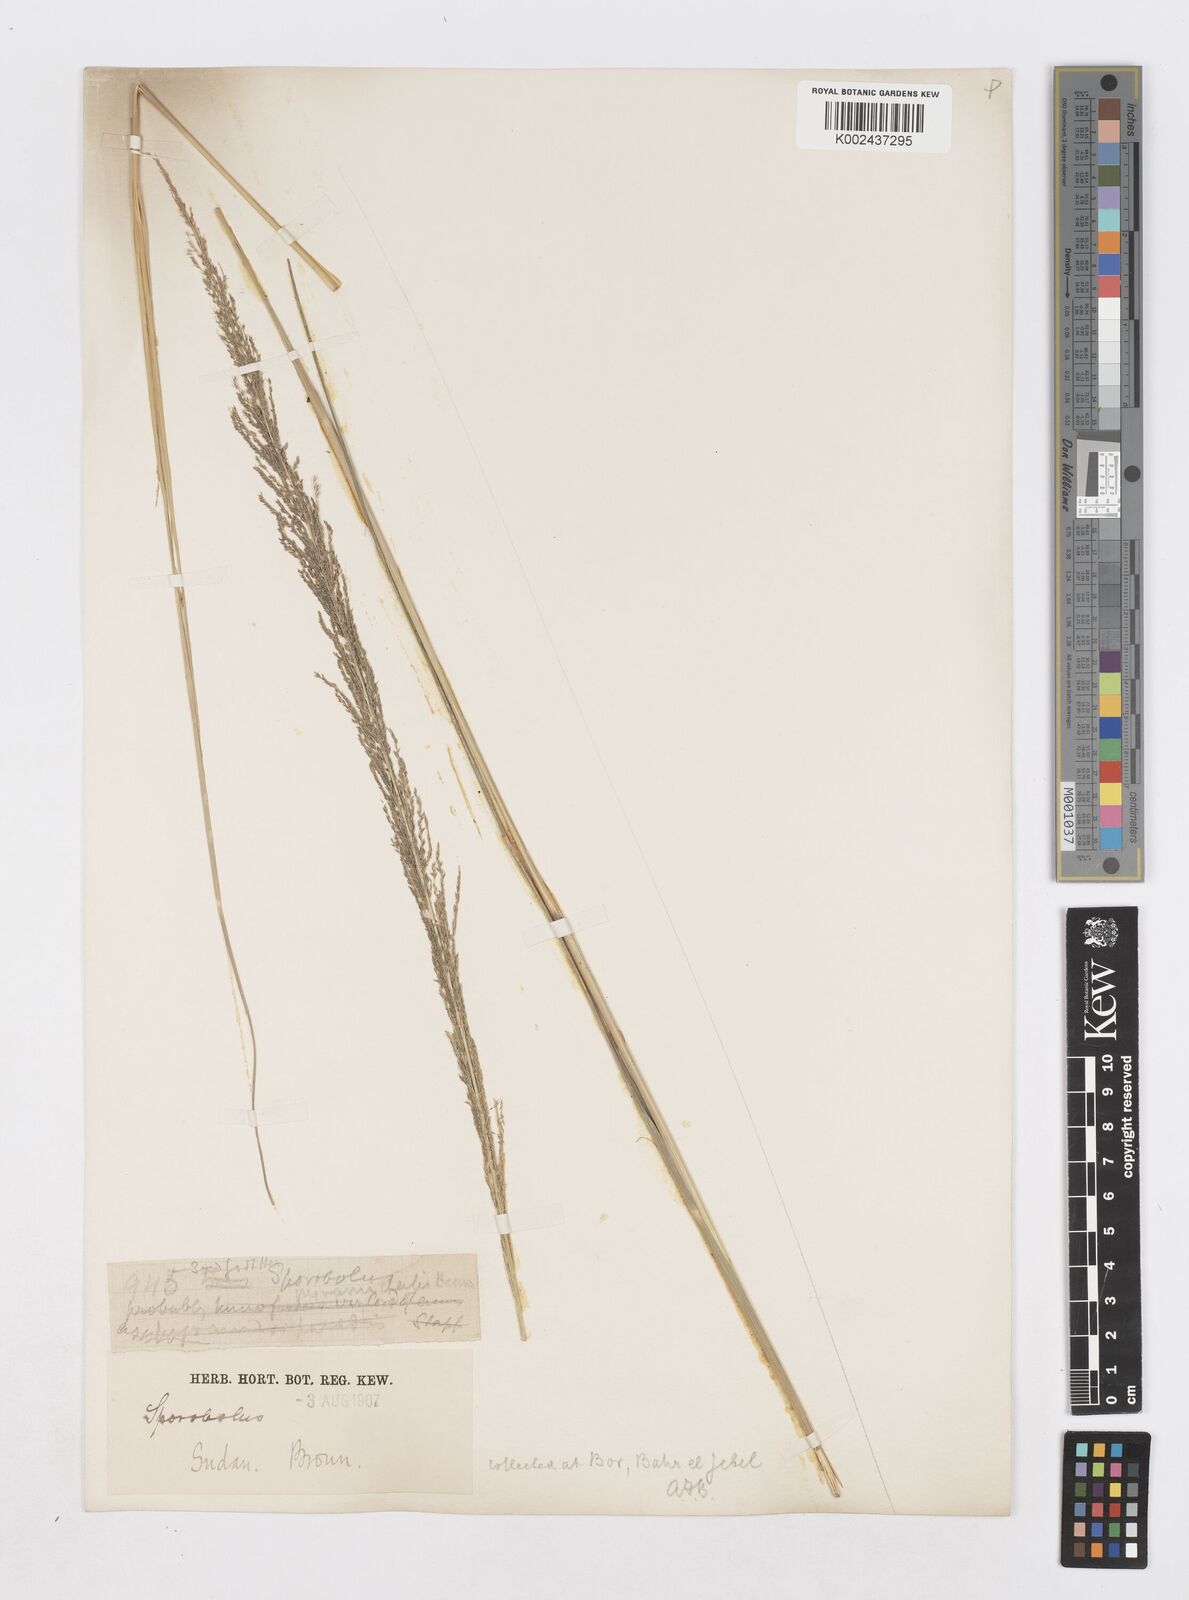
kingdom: Plantae
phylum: Tracheophyta
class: Liliopsida
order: Poales
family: Poaceae
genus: Sporobolus
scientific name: Sporobolus pyramidalis
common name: West indian dropseed
